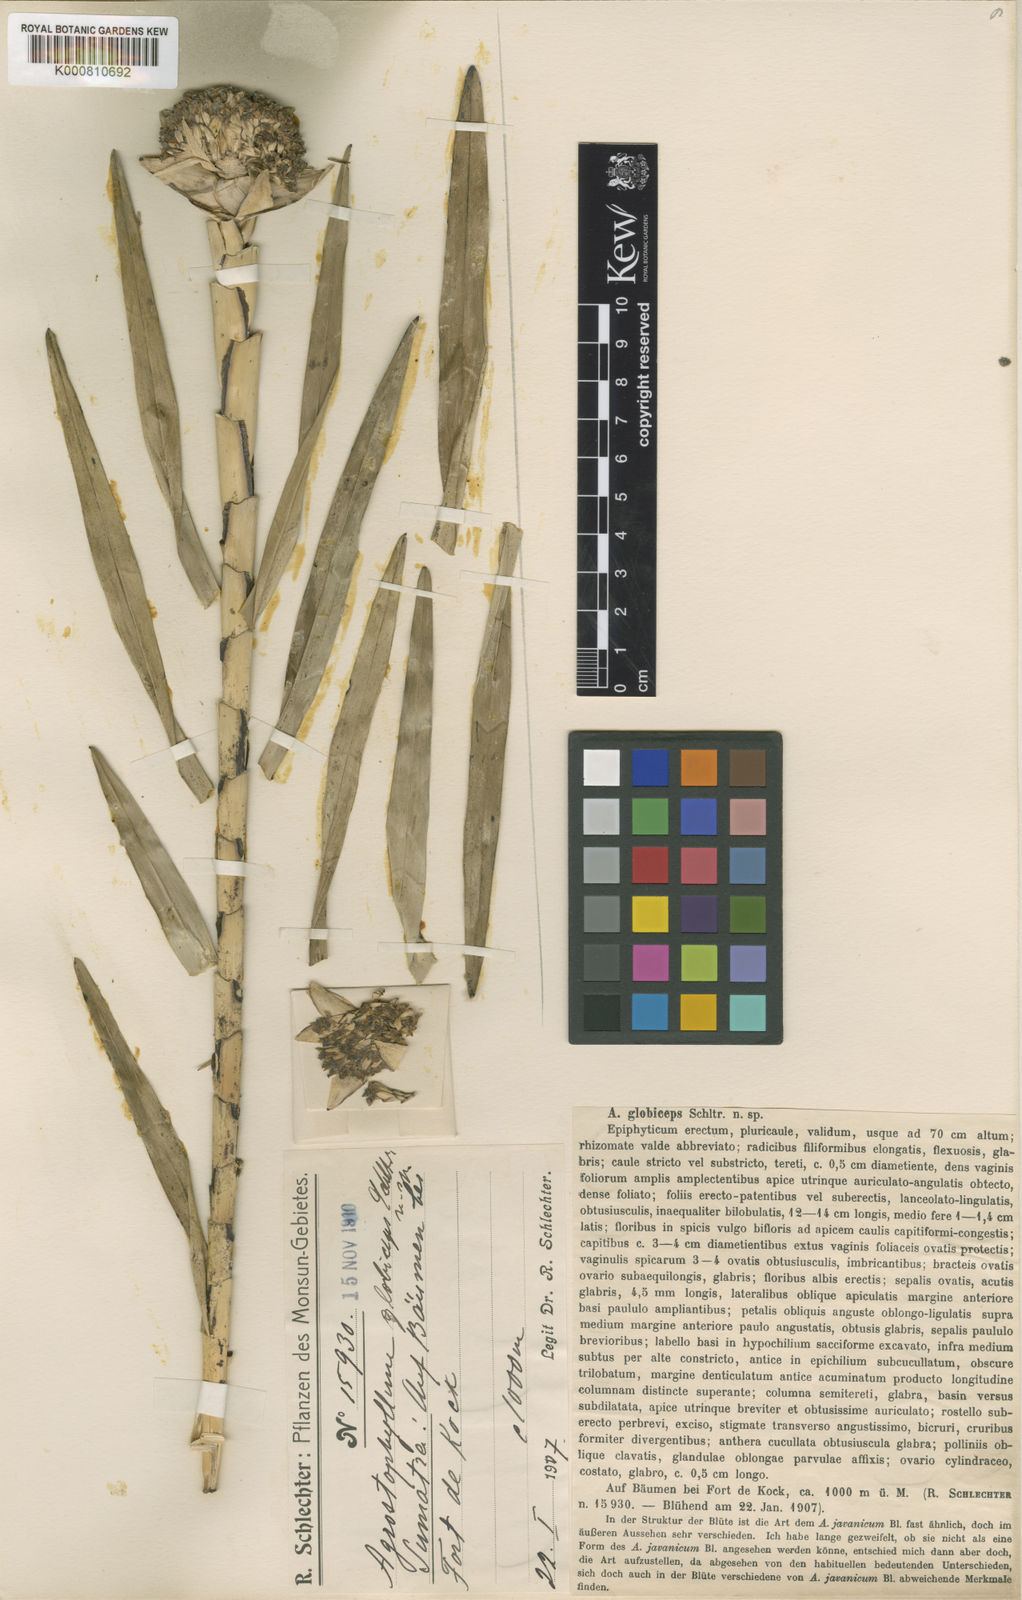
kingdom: Plantae
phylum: Tracheophyta
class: Liliopsida
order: Asparagales
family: Orchidaceae
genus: Agrostophyllum
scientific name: Agrostophyllum globiceps
